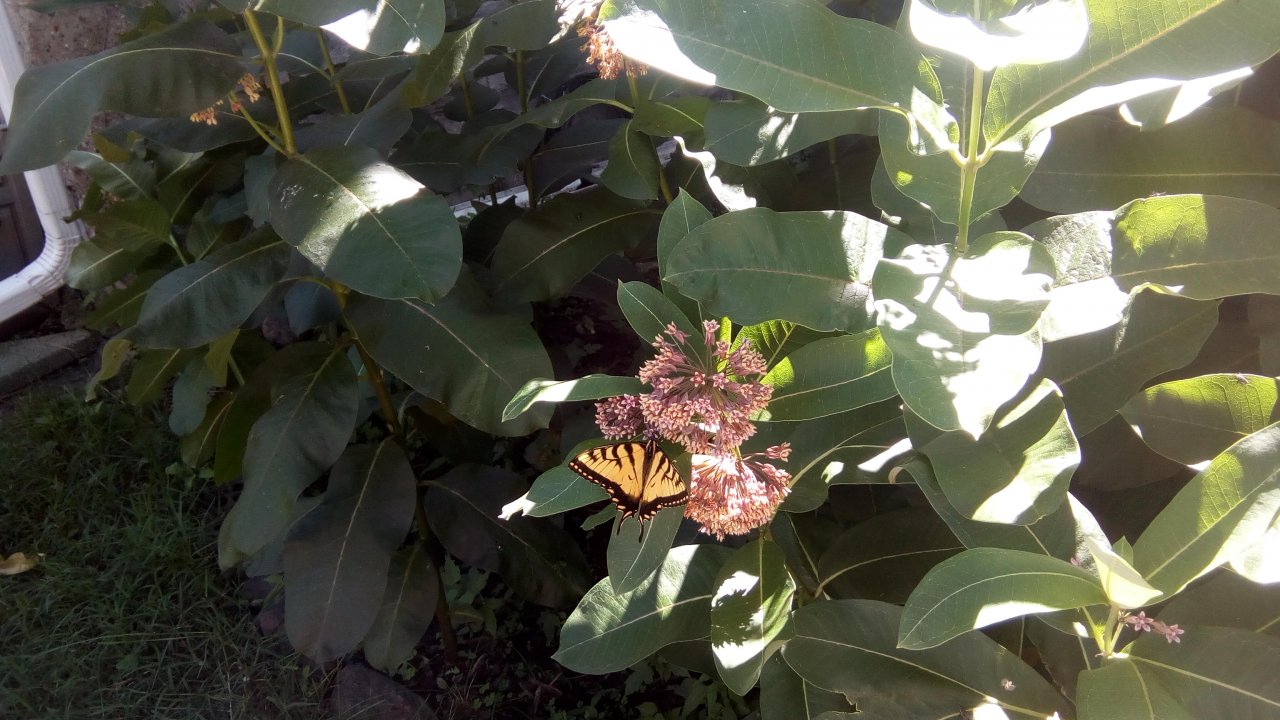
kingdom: Animalia
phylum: Arthropoda
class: Insecta
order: Lepidoptera
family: Papilionidae
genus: Papilio
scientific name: Papilio
